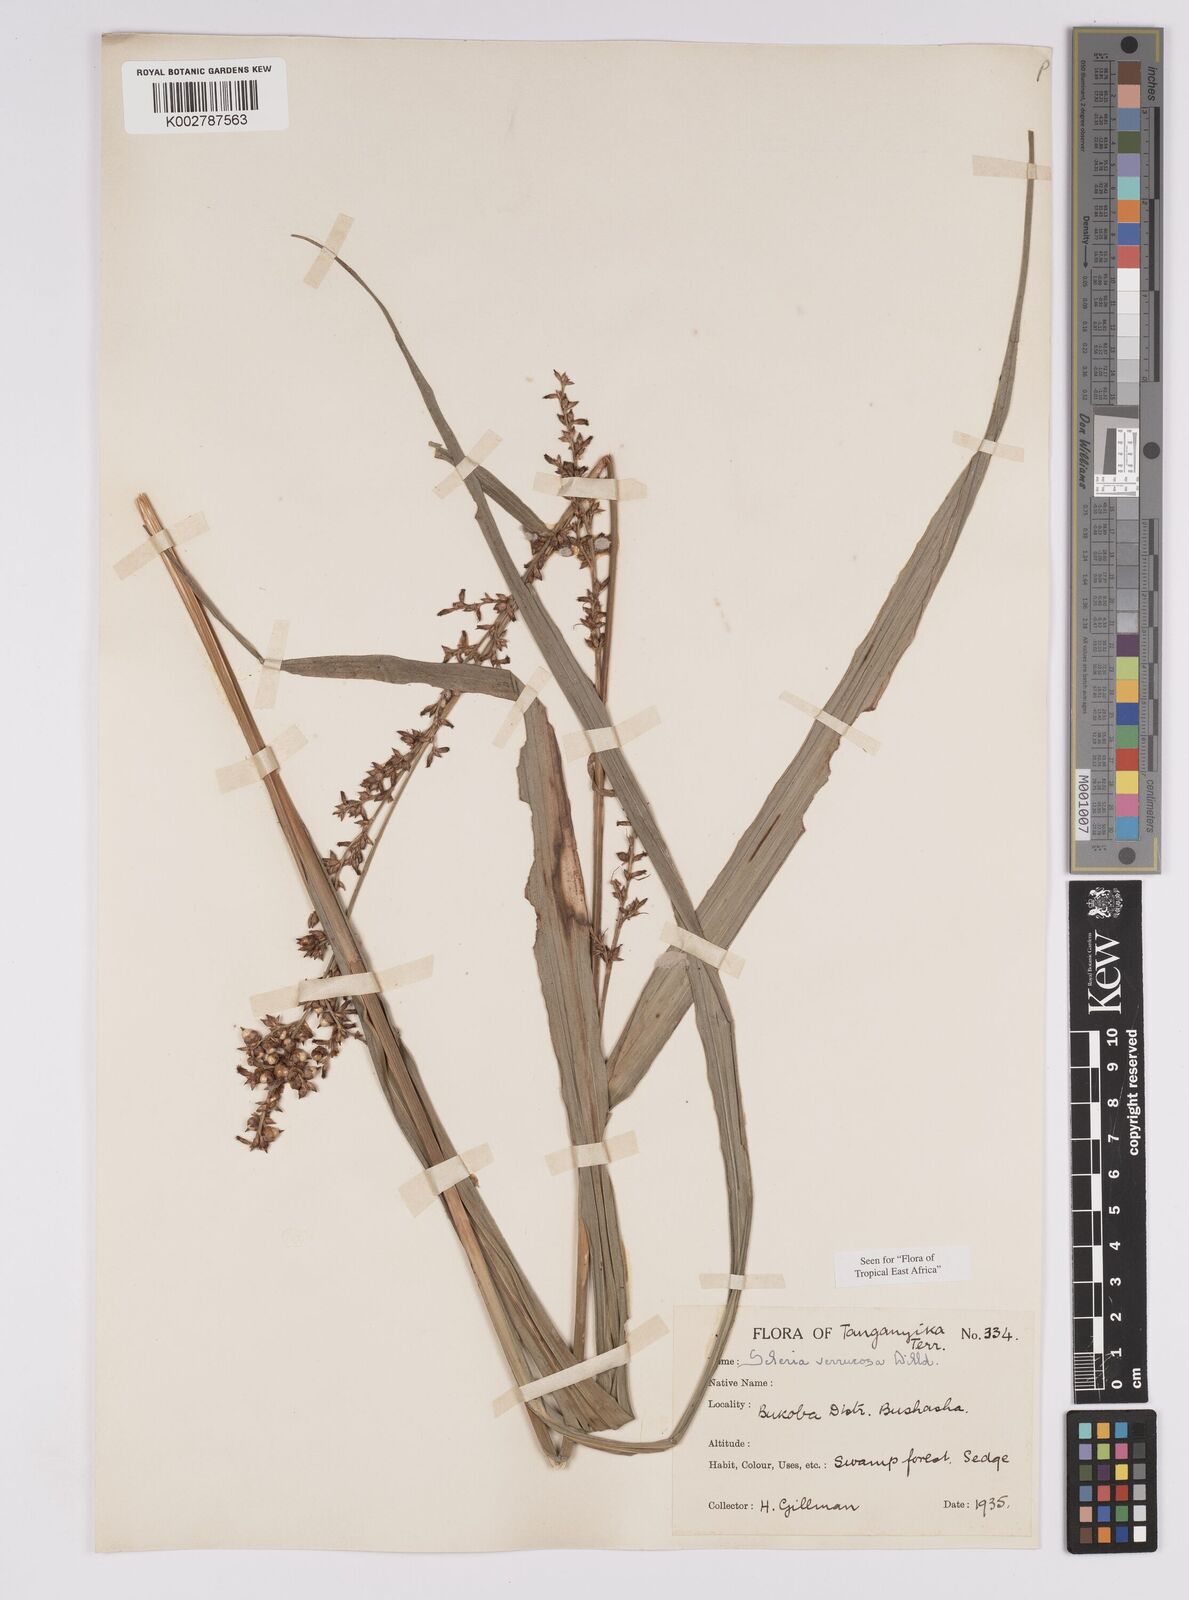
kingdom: Plantae
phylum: Tracheophyta
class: Liliopsida
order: Poales
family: Cyperaceae
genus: Scleria
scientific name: Scleria verrucosa
